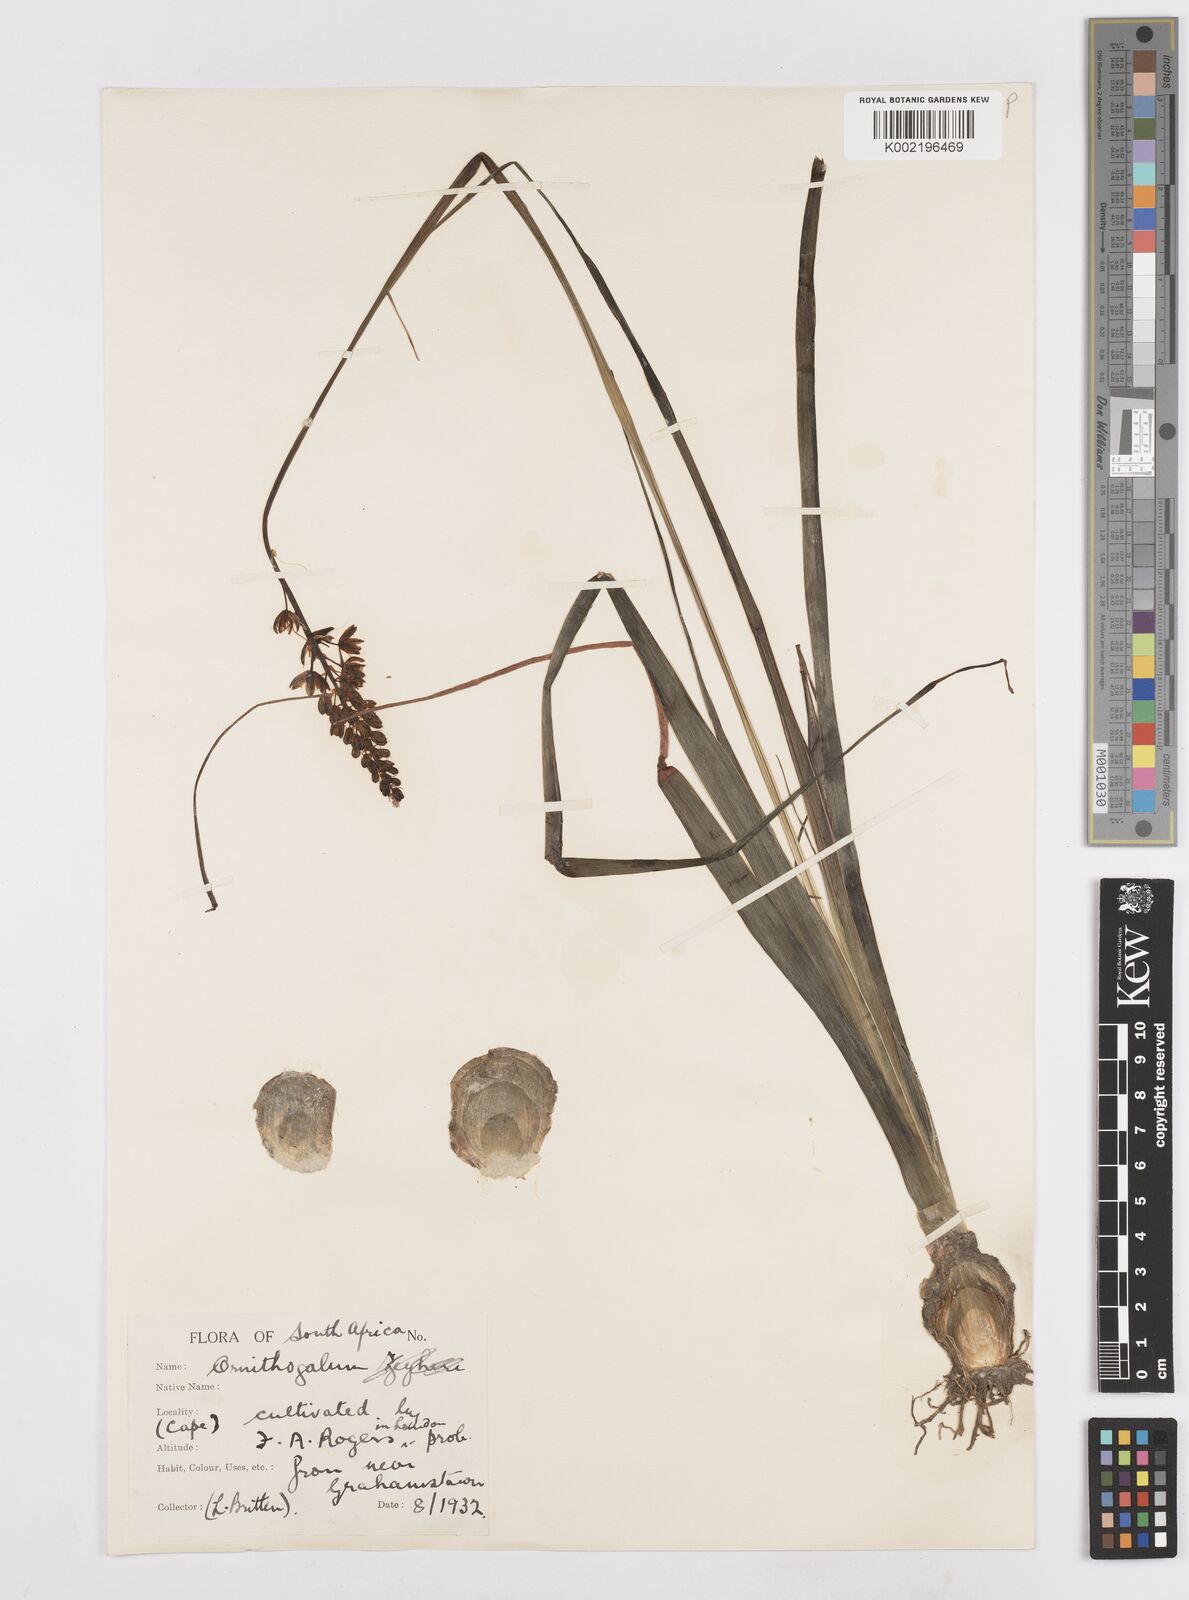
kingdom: Plantae
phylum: Tracheophyta
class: Liliopsida
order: Asparagales
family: Asparagaceae
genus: Albuca
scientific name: Albuca virens
